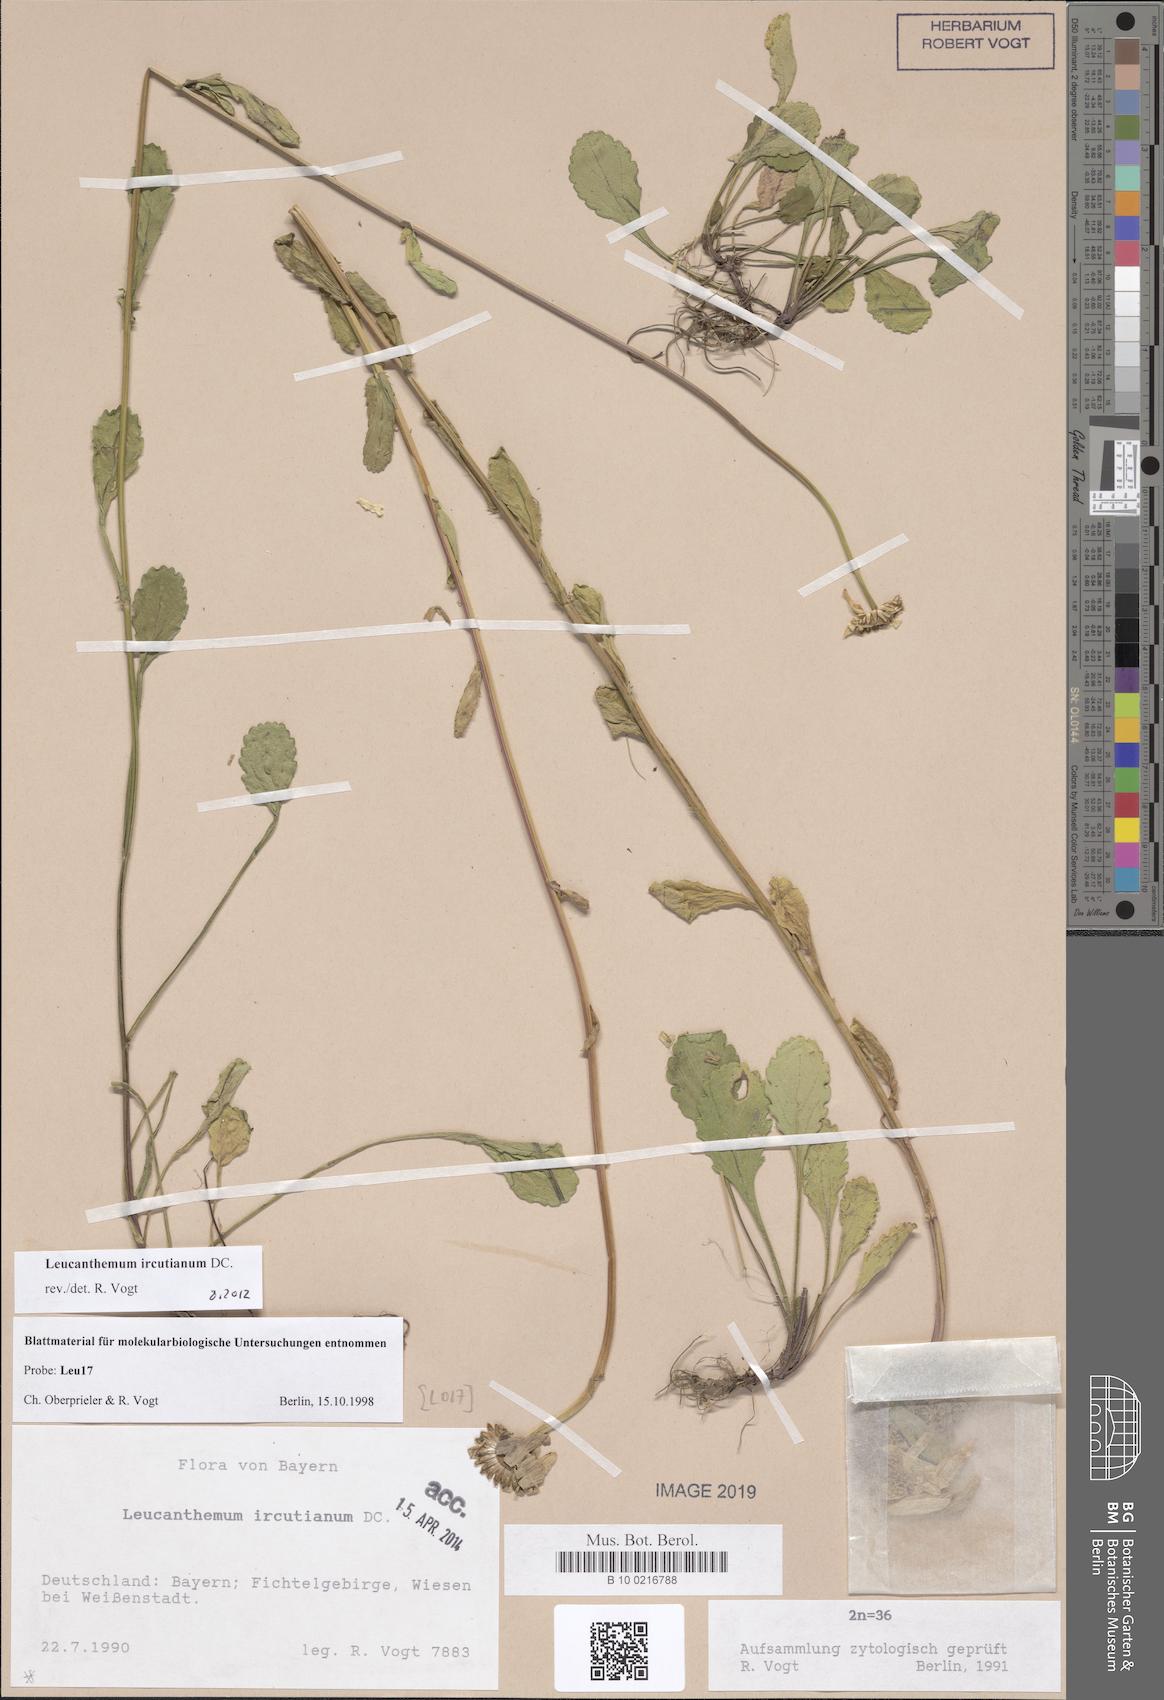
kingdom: Plantae
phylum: Tracheophyta
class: Magnoliopsida
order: Asterales
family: Asteraceae
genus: Leucanthemum
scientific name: Leucanthemum ircutianum
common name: Daisy
